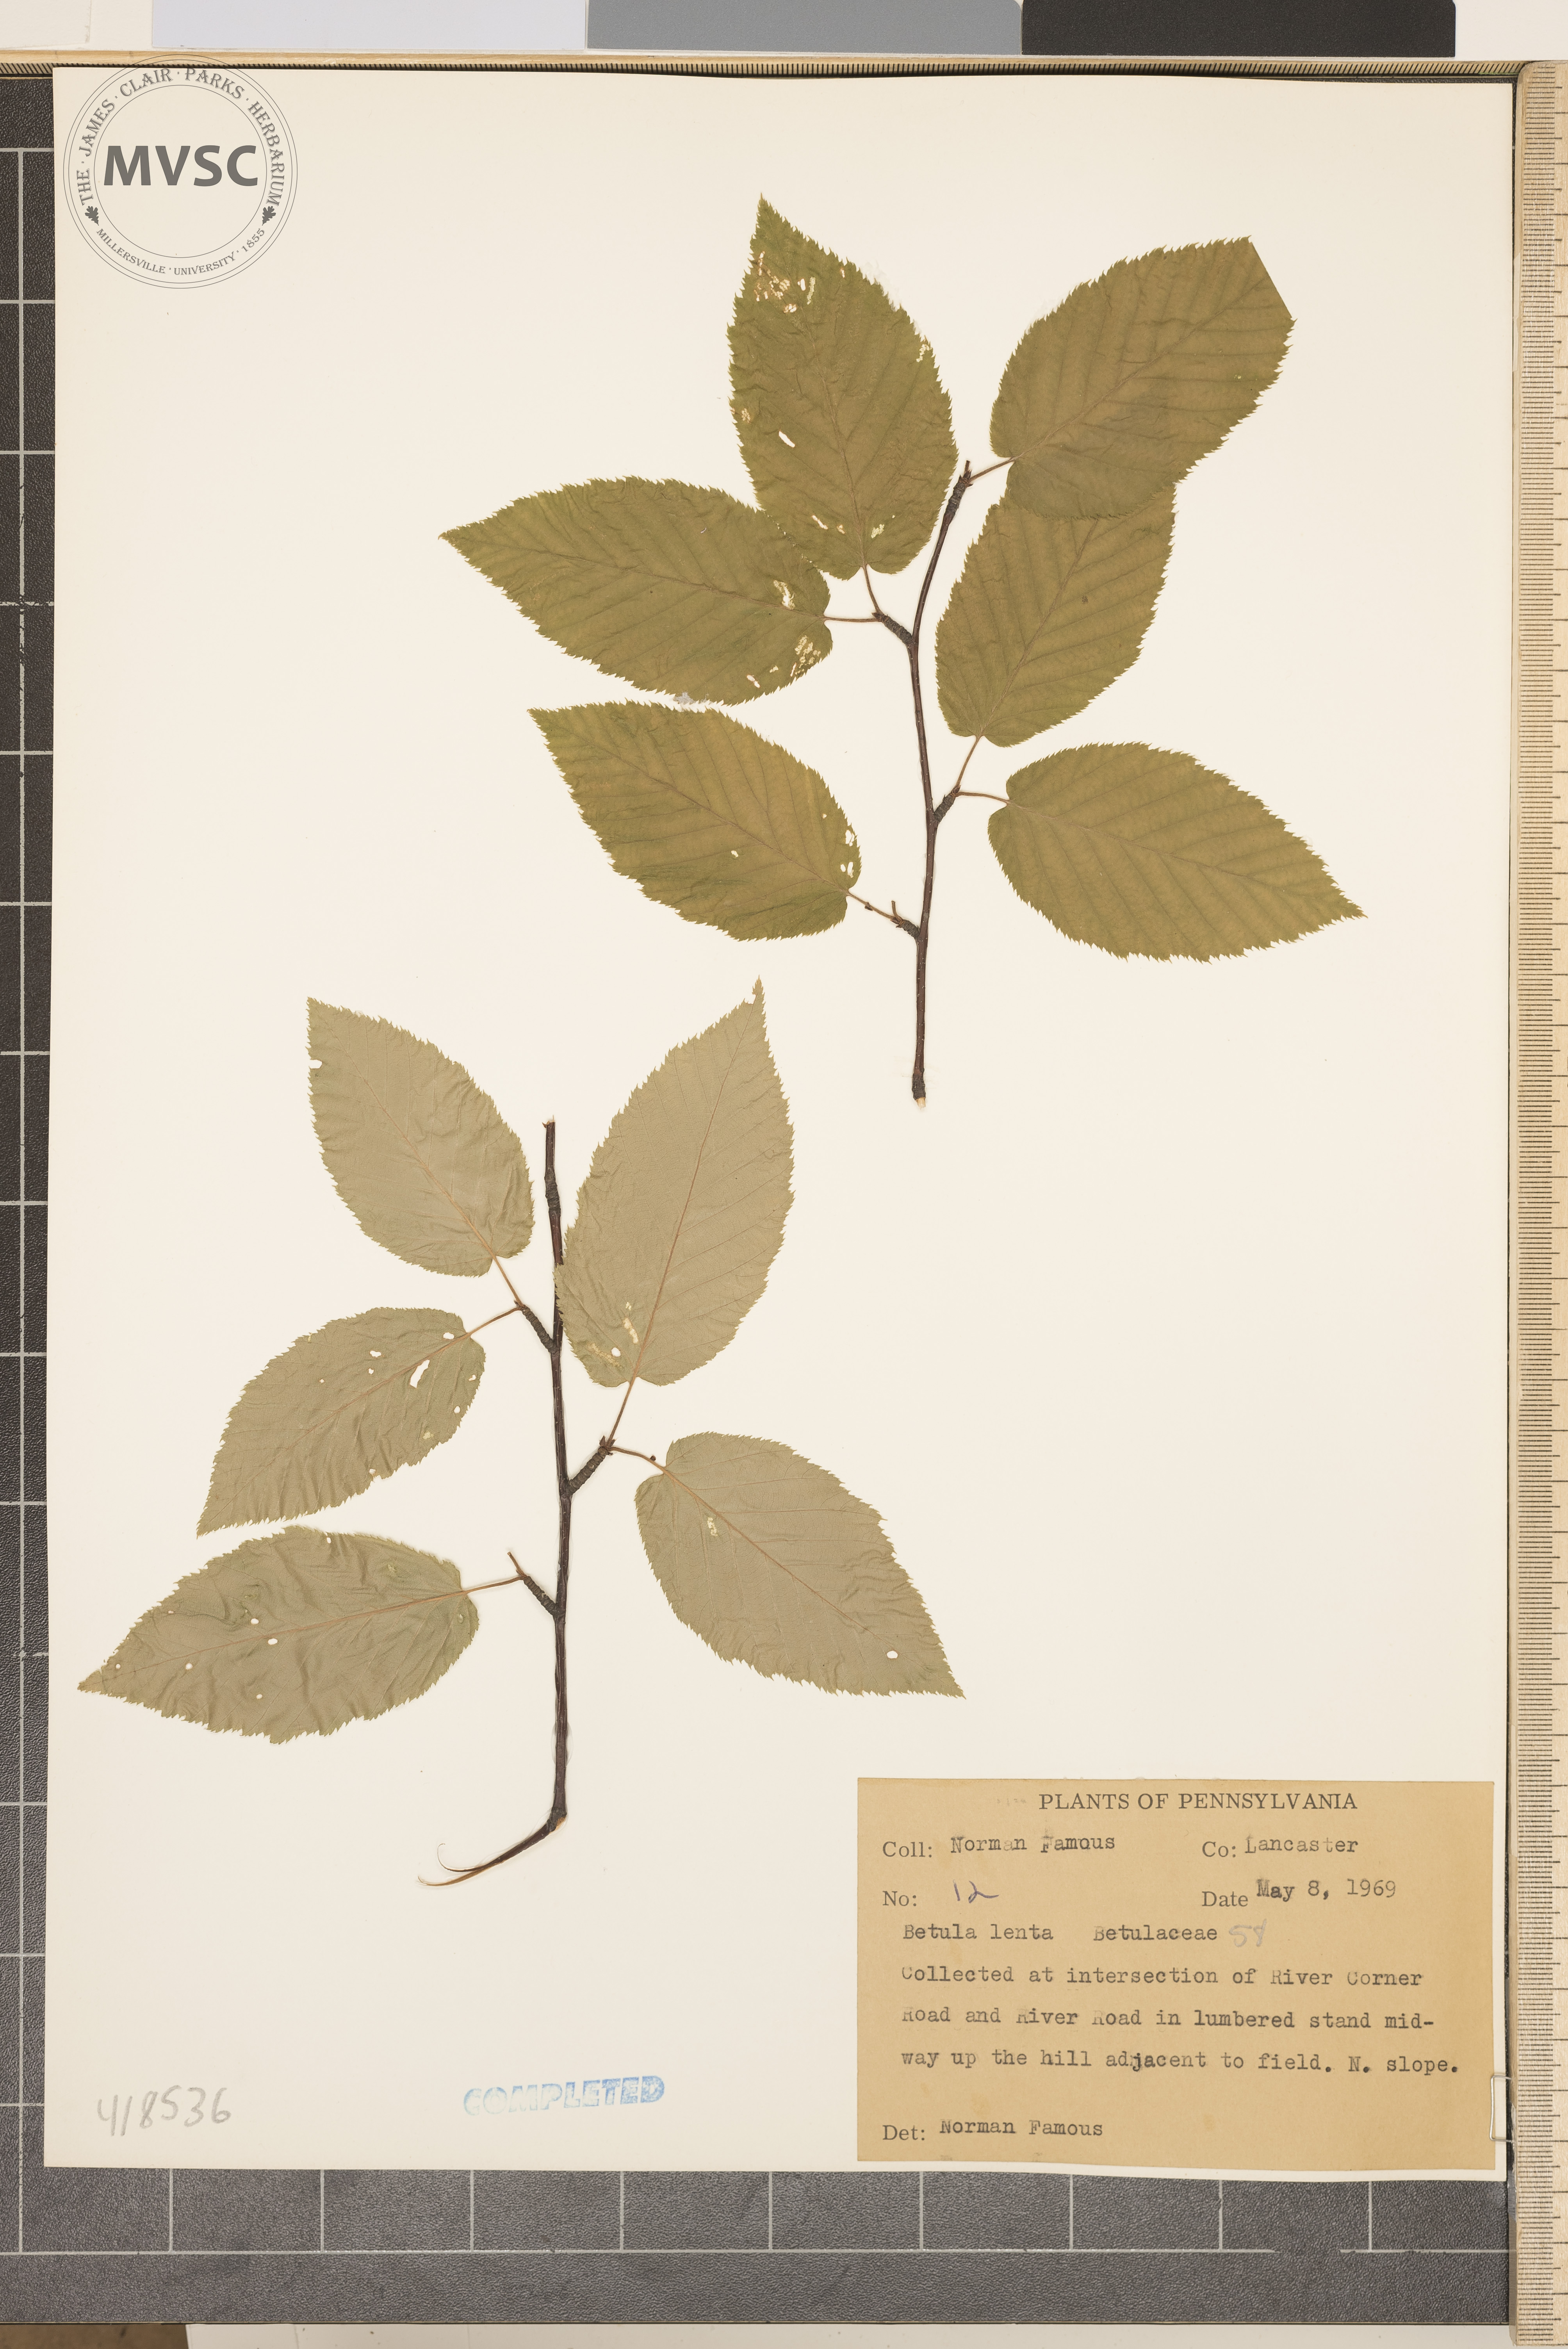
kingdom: Plantae
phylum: Tracheophyta
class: Magnoliopsida
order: Fagales
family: Betulaceae
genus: Betula
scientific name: Betula lenta
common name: Sweet birch
